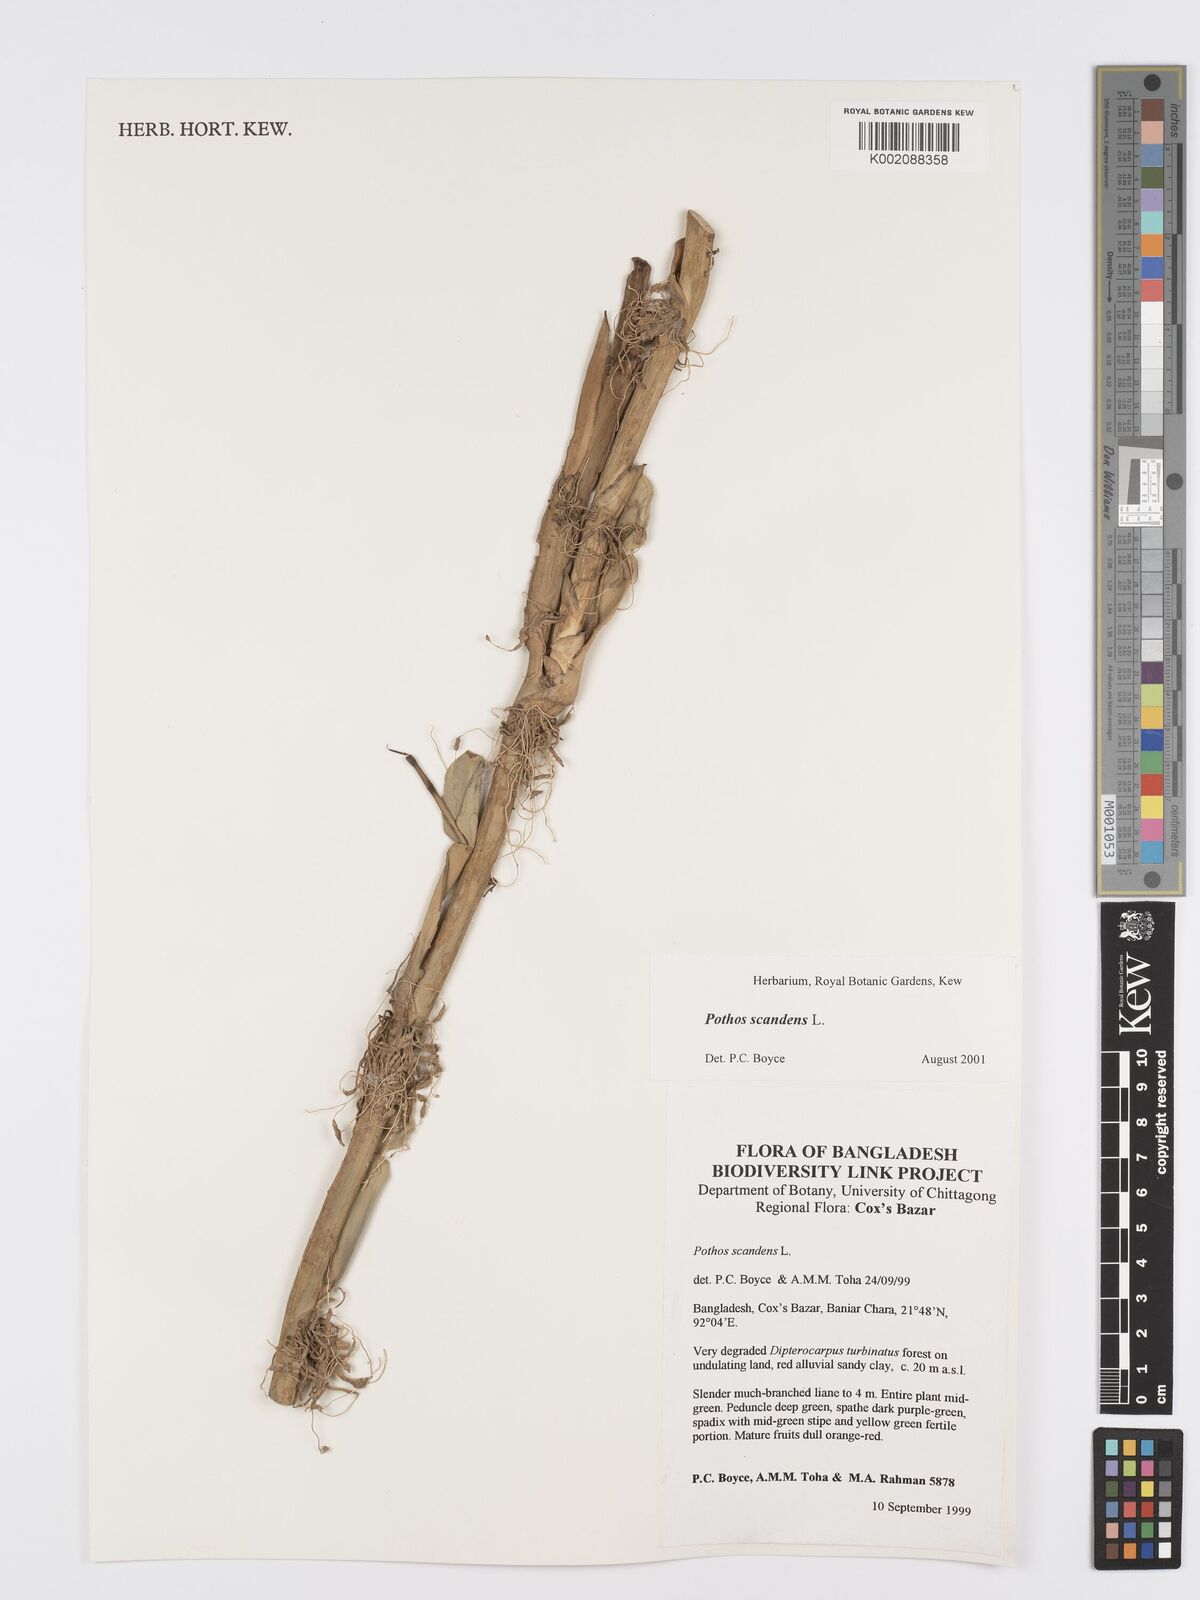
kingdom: Plantae
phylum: Tracheophyta
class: Liliopsida
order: Alismatales
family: Araceae
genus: Pothos
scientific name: Pothos scandens
